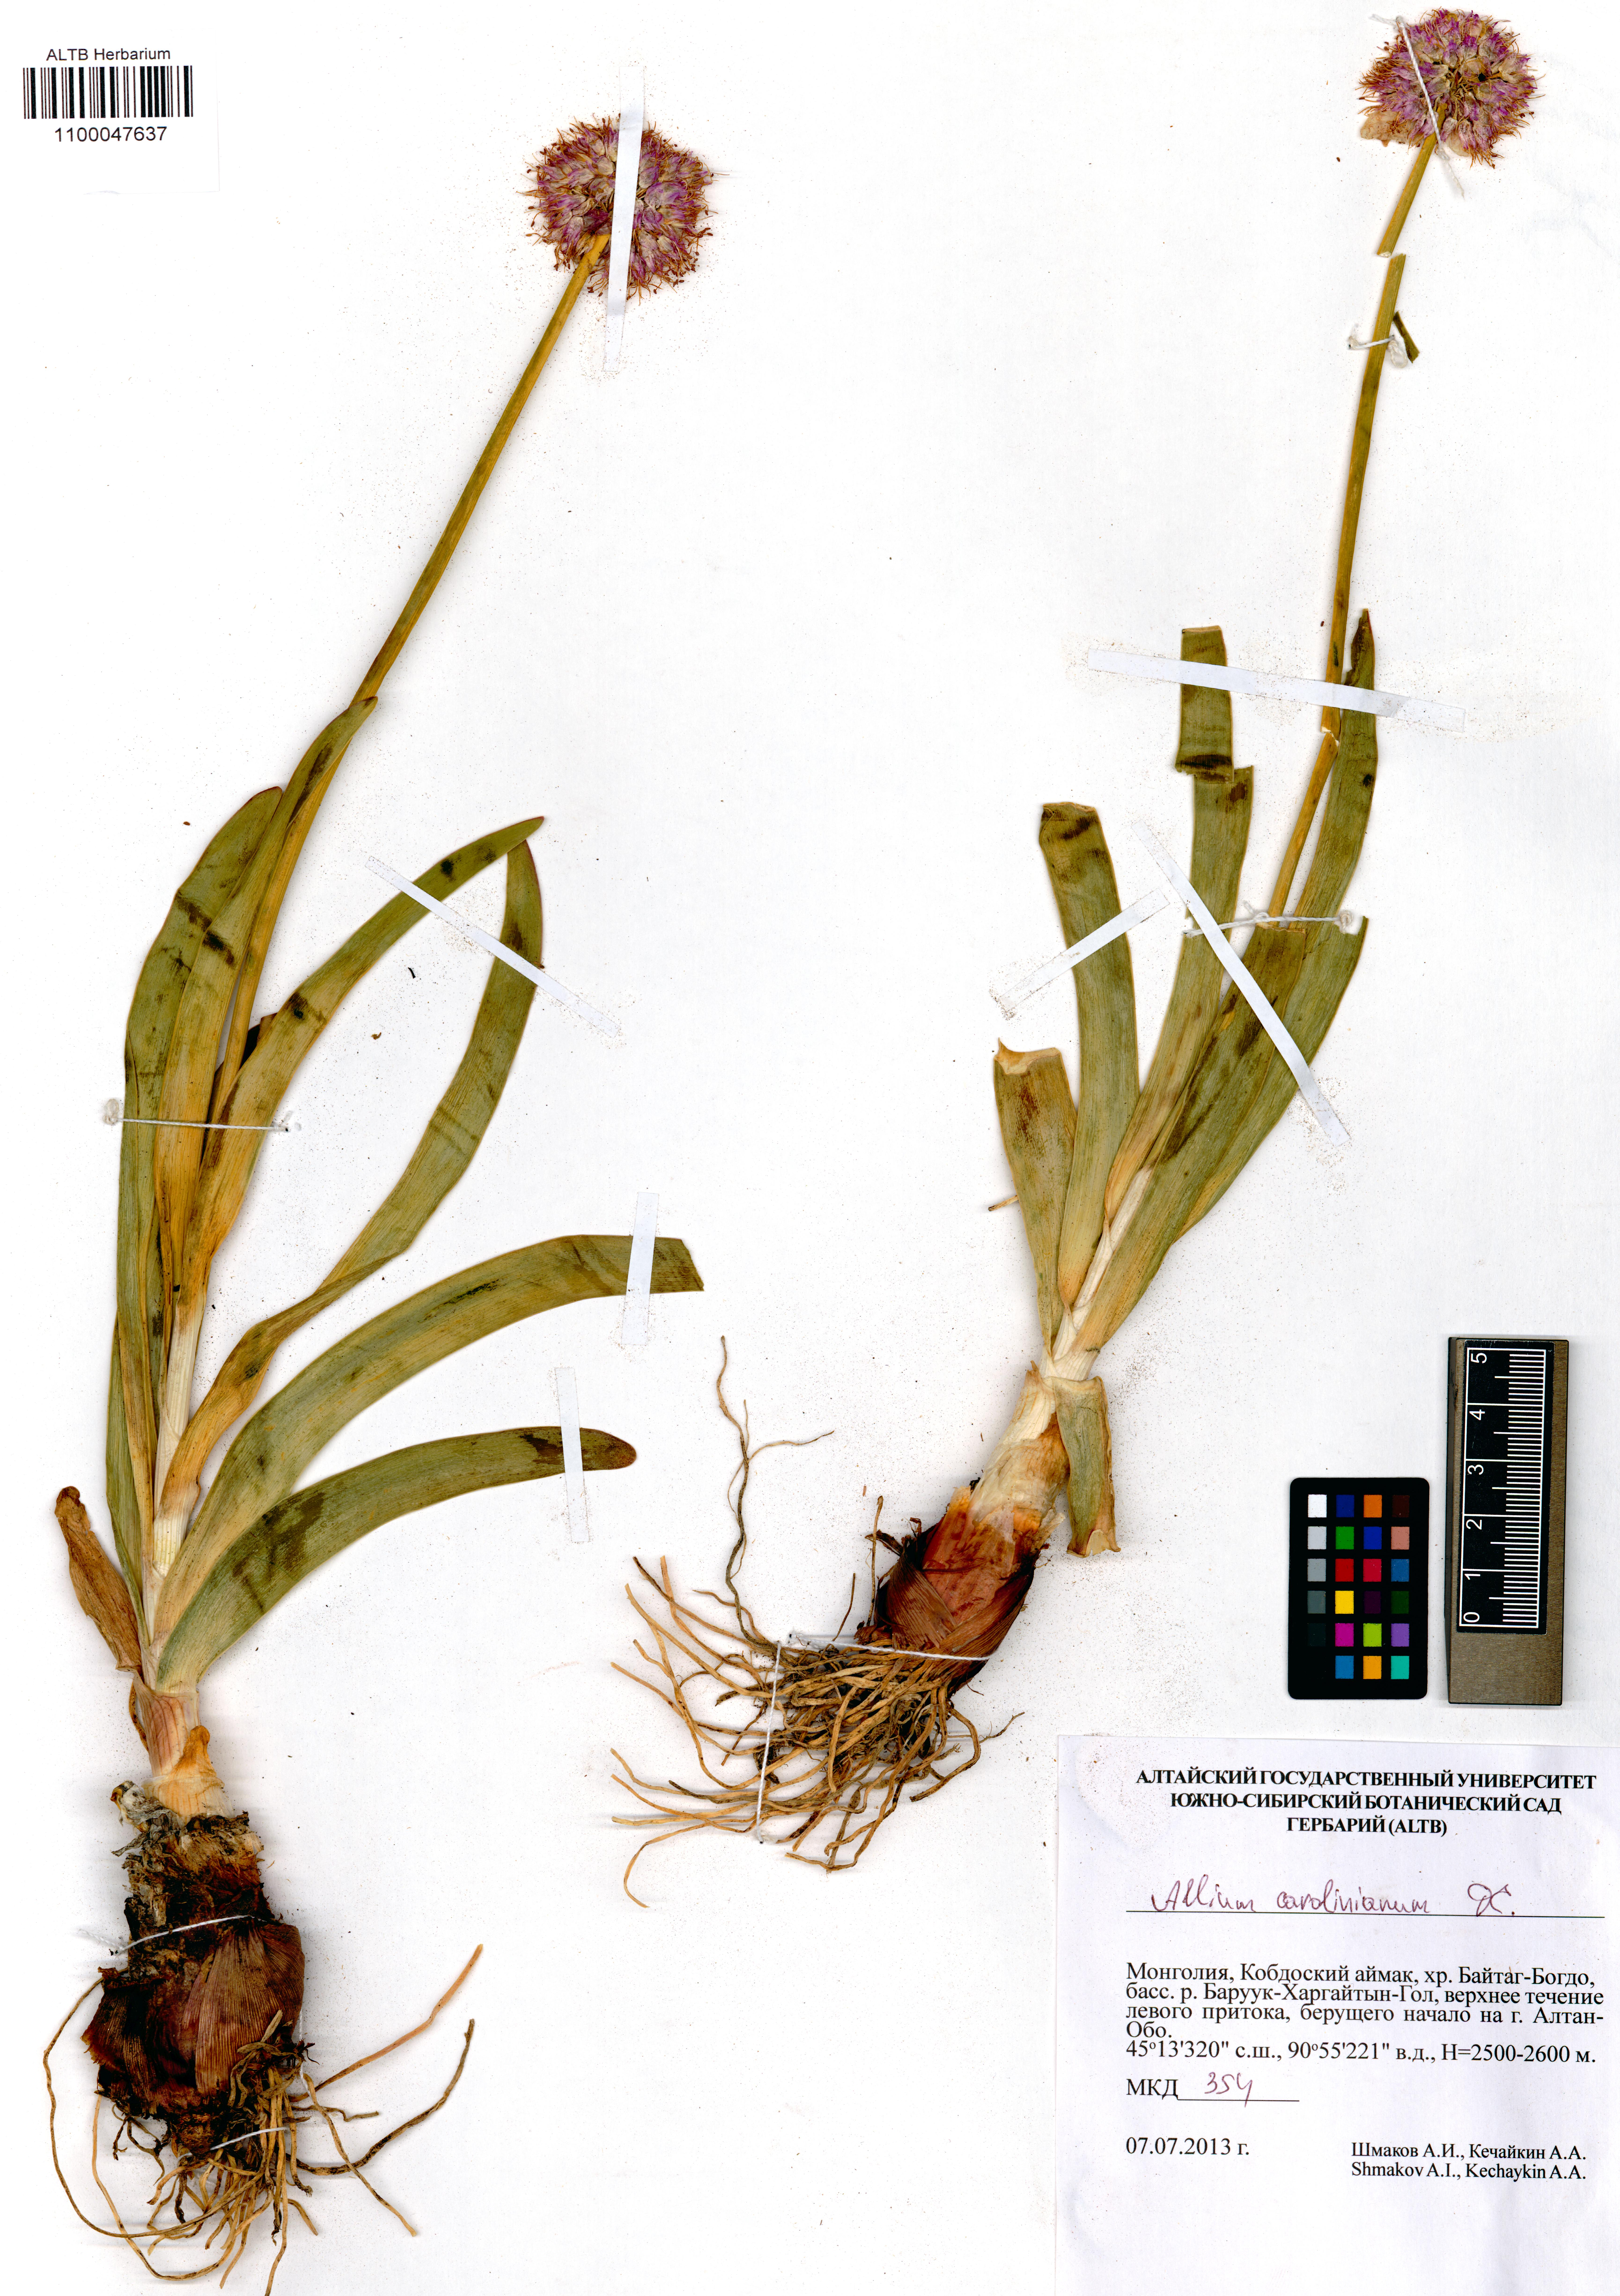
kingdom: Plantae
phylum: Tracheophyta
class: Liliopsida
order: Asparagales
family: Amaryllidaceae
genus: Allium
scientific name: Allium carolinianum
